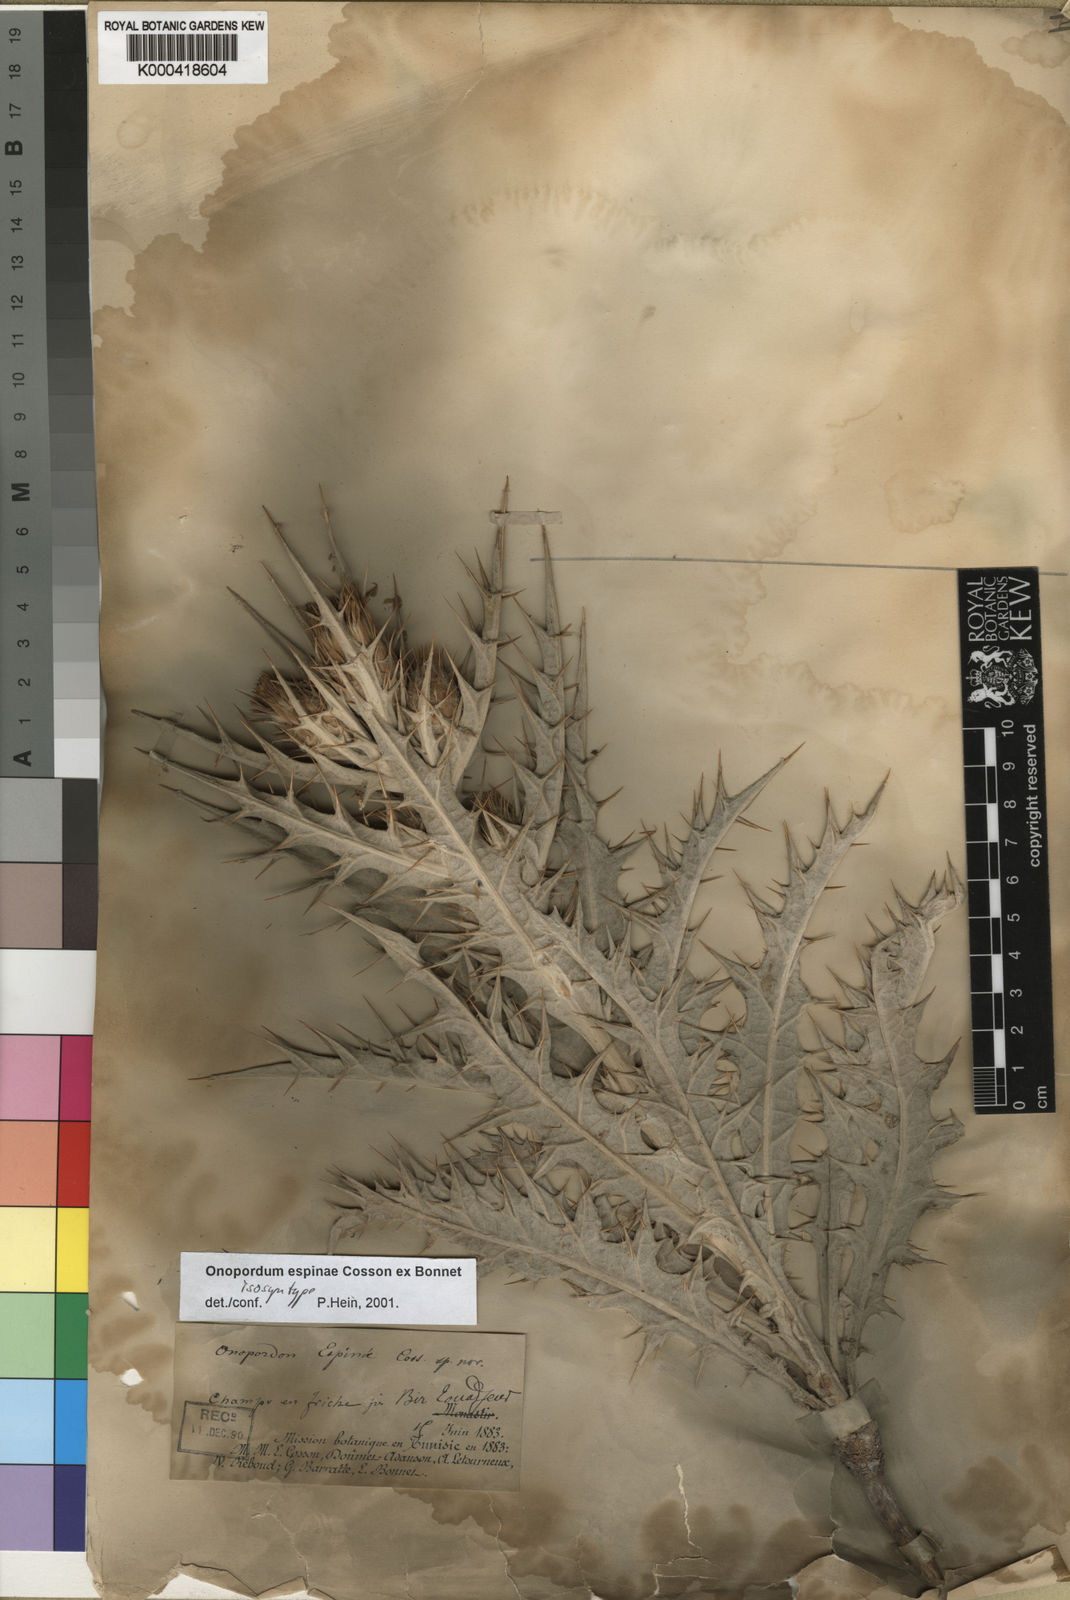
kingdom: Plantae
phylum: Tracheophyta
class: Magnoliopsida
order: Asterales
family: Asteraceae
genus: Onopordum
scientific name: Onopordum
